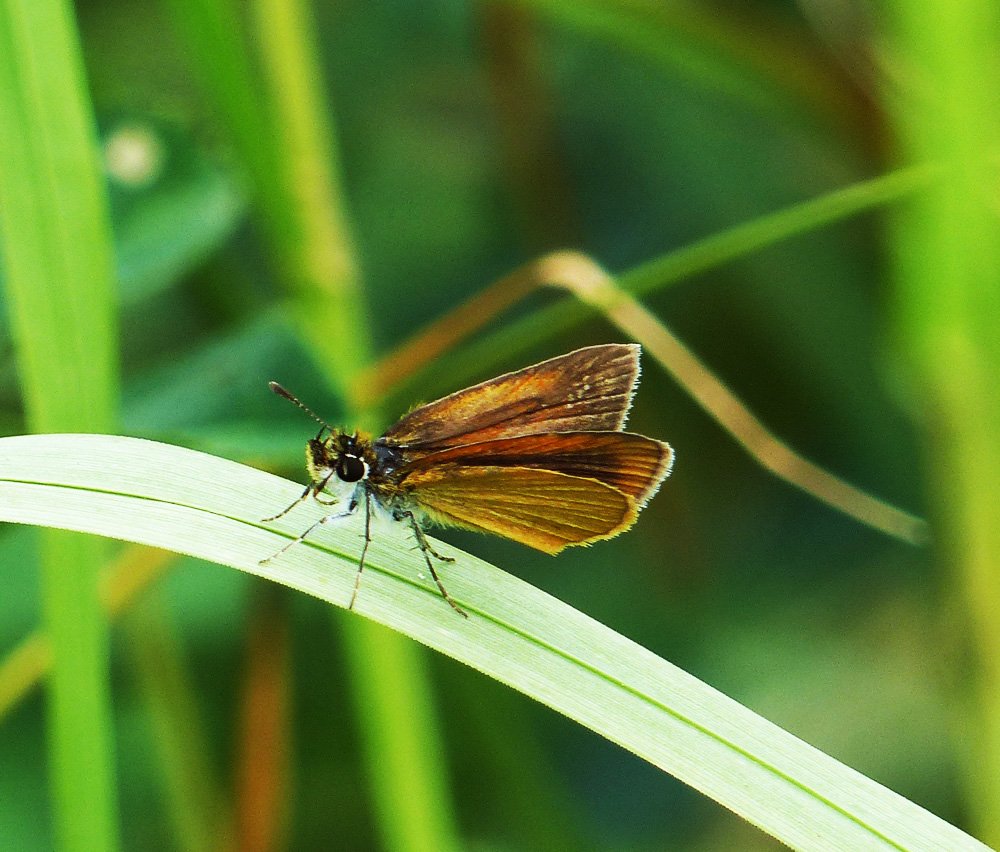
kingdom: Animalia
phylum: Arthropoda
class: Insecta
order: Lepidoptera
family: Hesperiidae
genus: Ancyloxypha
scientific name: Ancyloxypha numitor
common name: Least Skipper
